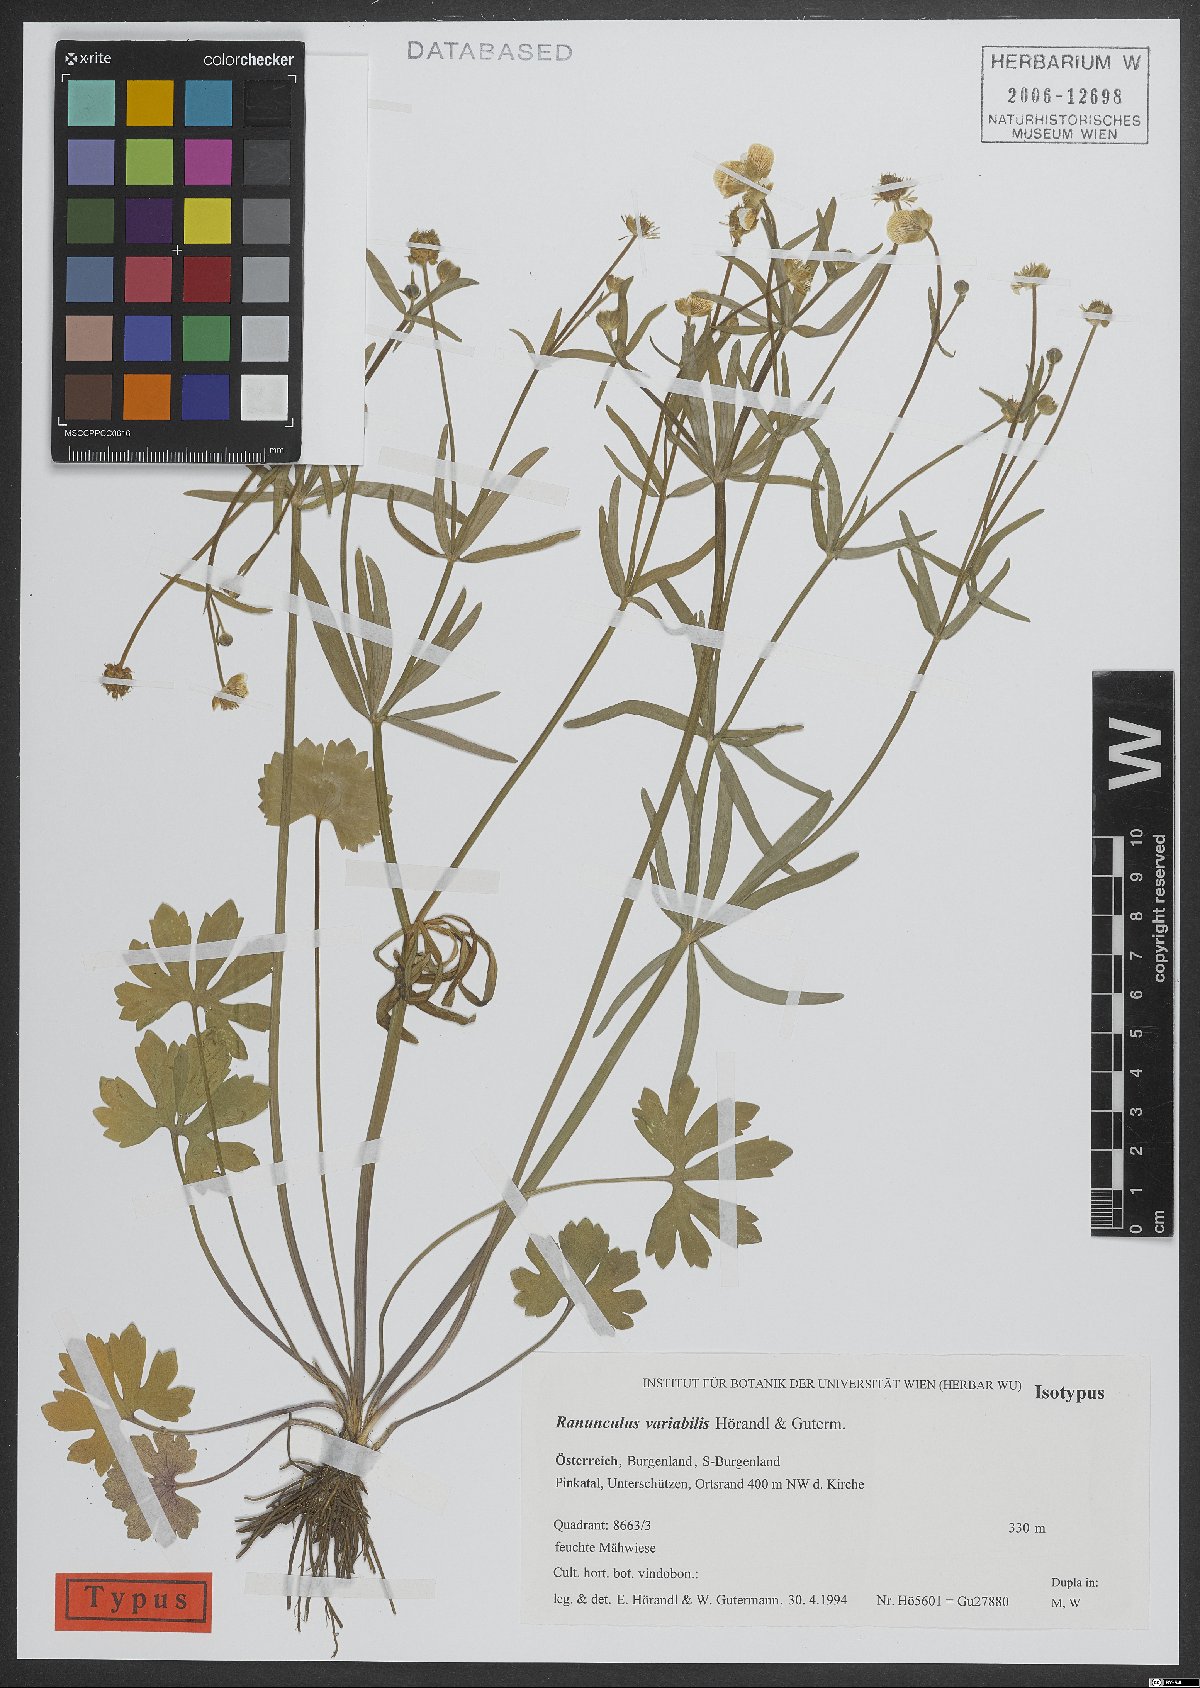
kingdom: Plantae
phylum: Tracheophyta
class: Magnoliopsida
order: Ranunculales
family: Ranunculaceae
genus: Ranunculus
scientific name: Ranunculus variabilis
